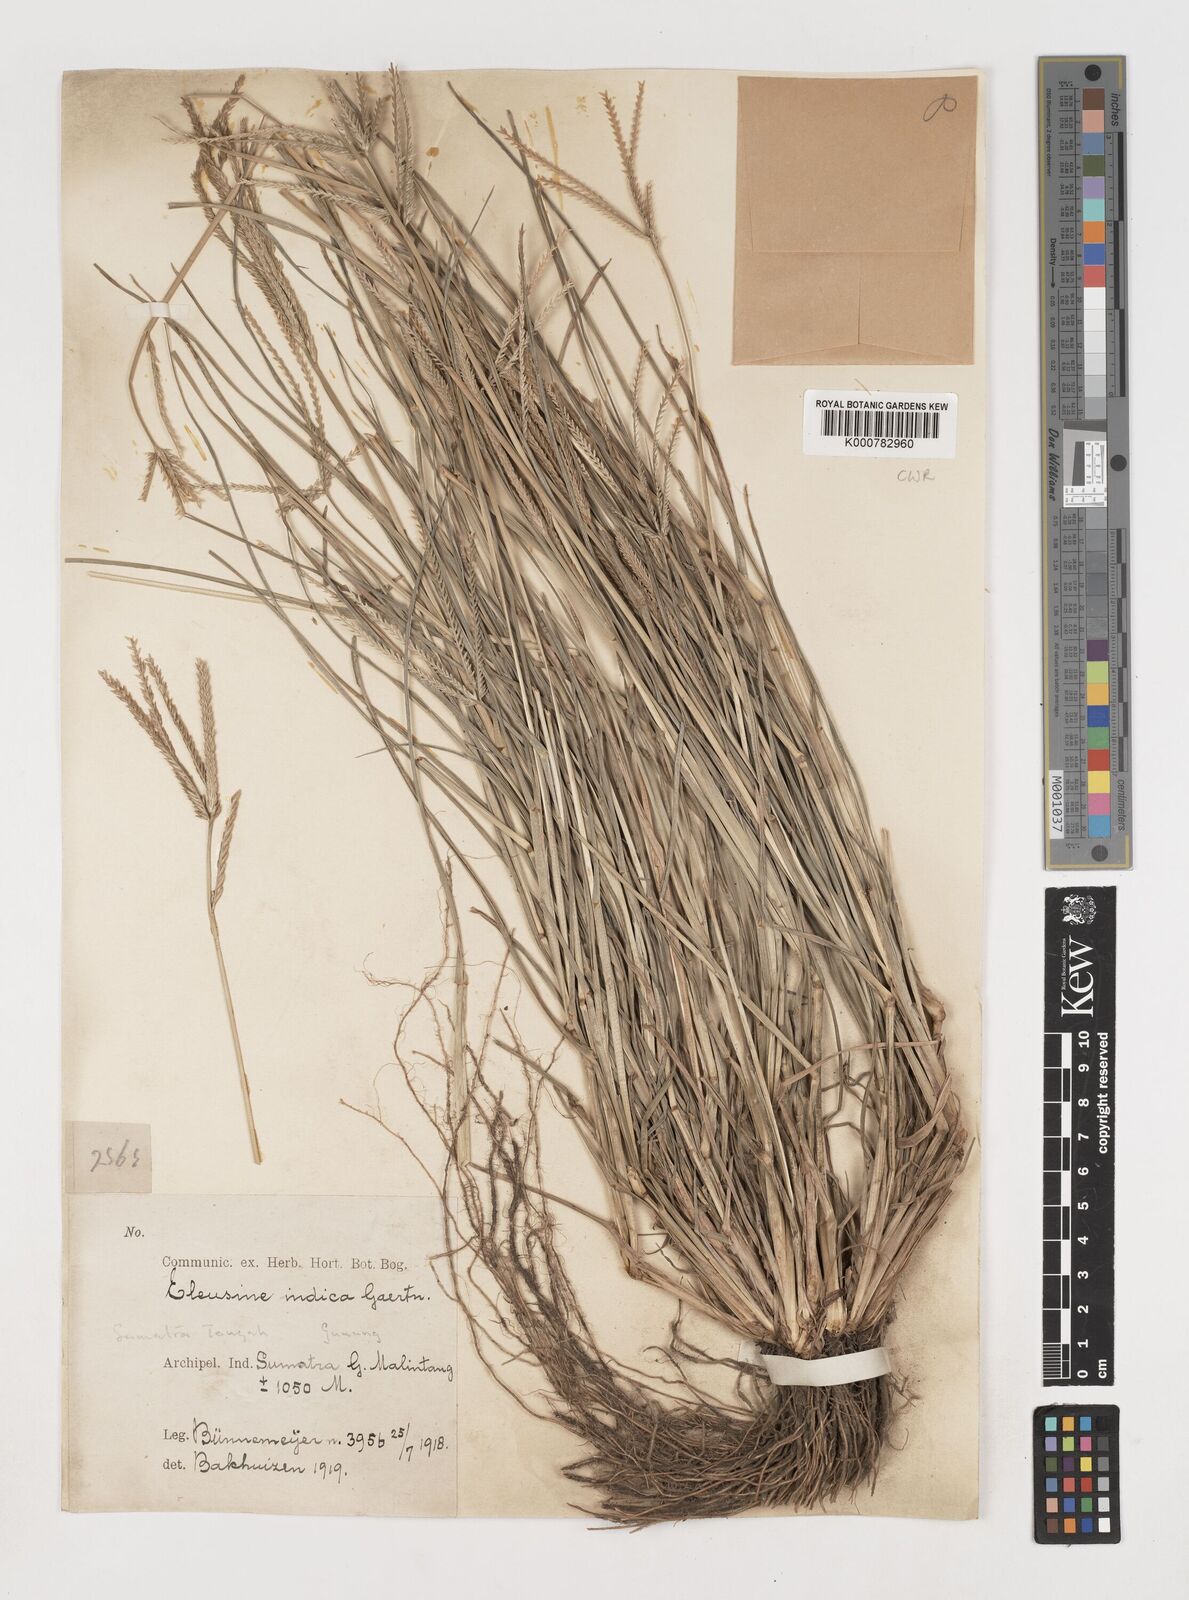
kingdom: Plantae
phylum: Tracheophyta
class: Liliopsida
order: Poales
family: Poaceae
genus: Eleusine
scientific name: Eleusine indica
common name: Yard-grass
